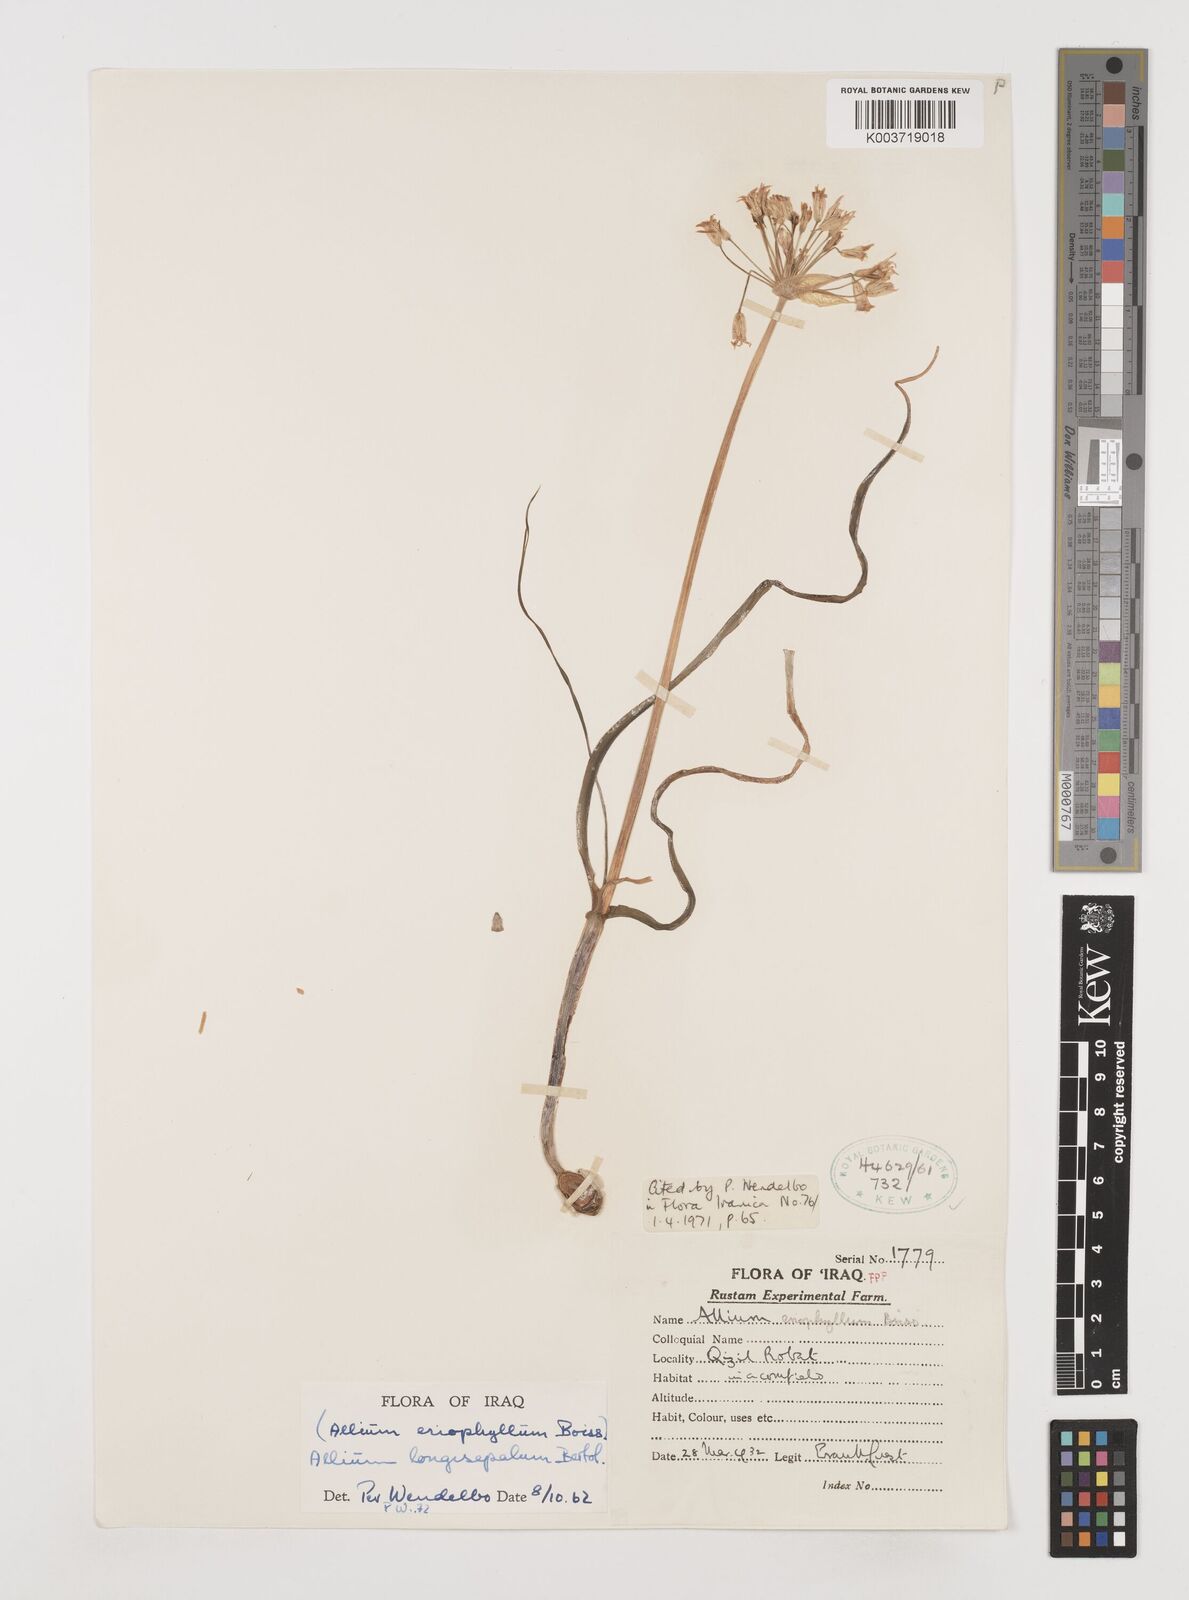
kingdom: Plantae
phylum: Tracheophyta
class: Liliopsida
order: Asparagales
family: Amaryllidaceae
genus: Allium
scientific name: Allium longisepalum
